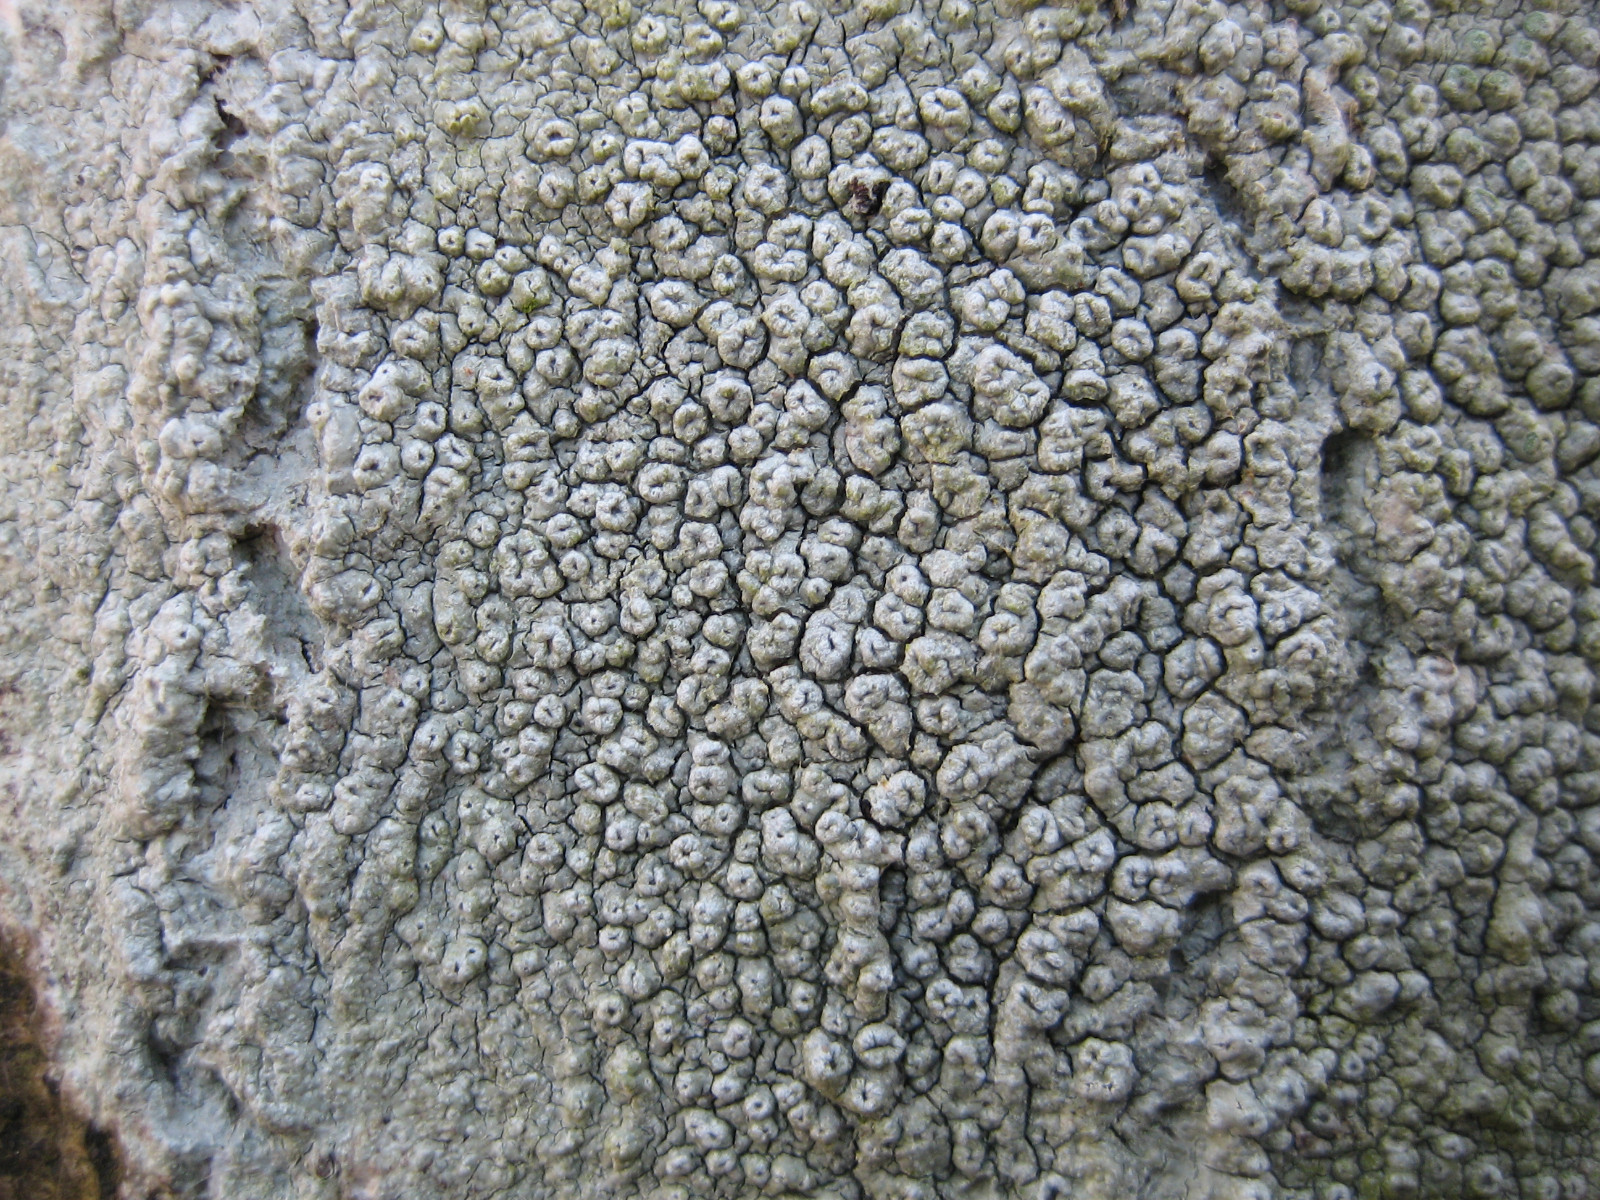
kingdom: Fungi
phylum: Ascomycota
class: Lecanoromycetes
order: Pertusariales
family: Pertusariaceae
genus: Pertusaria
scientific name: Pertusaria hymenea
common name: åben prikvortelav
